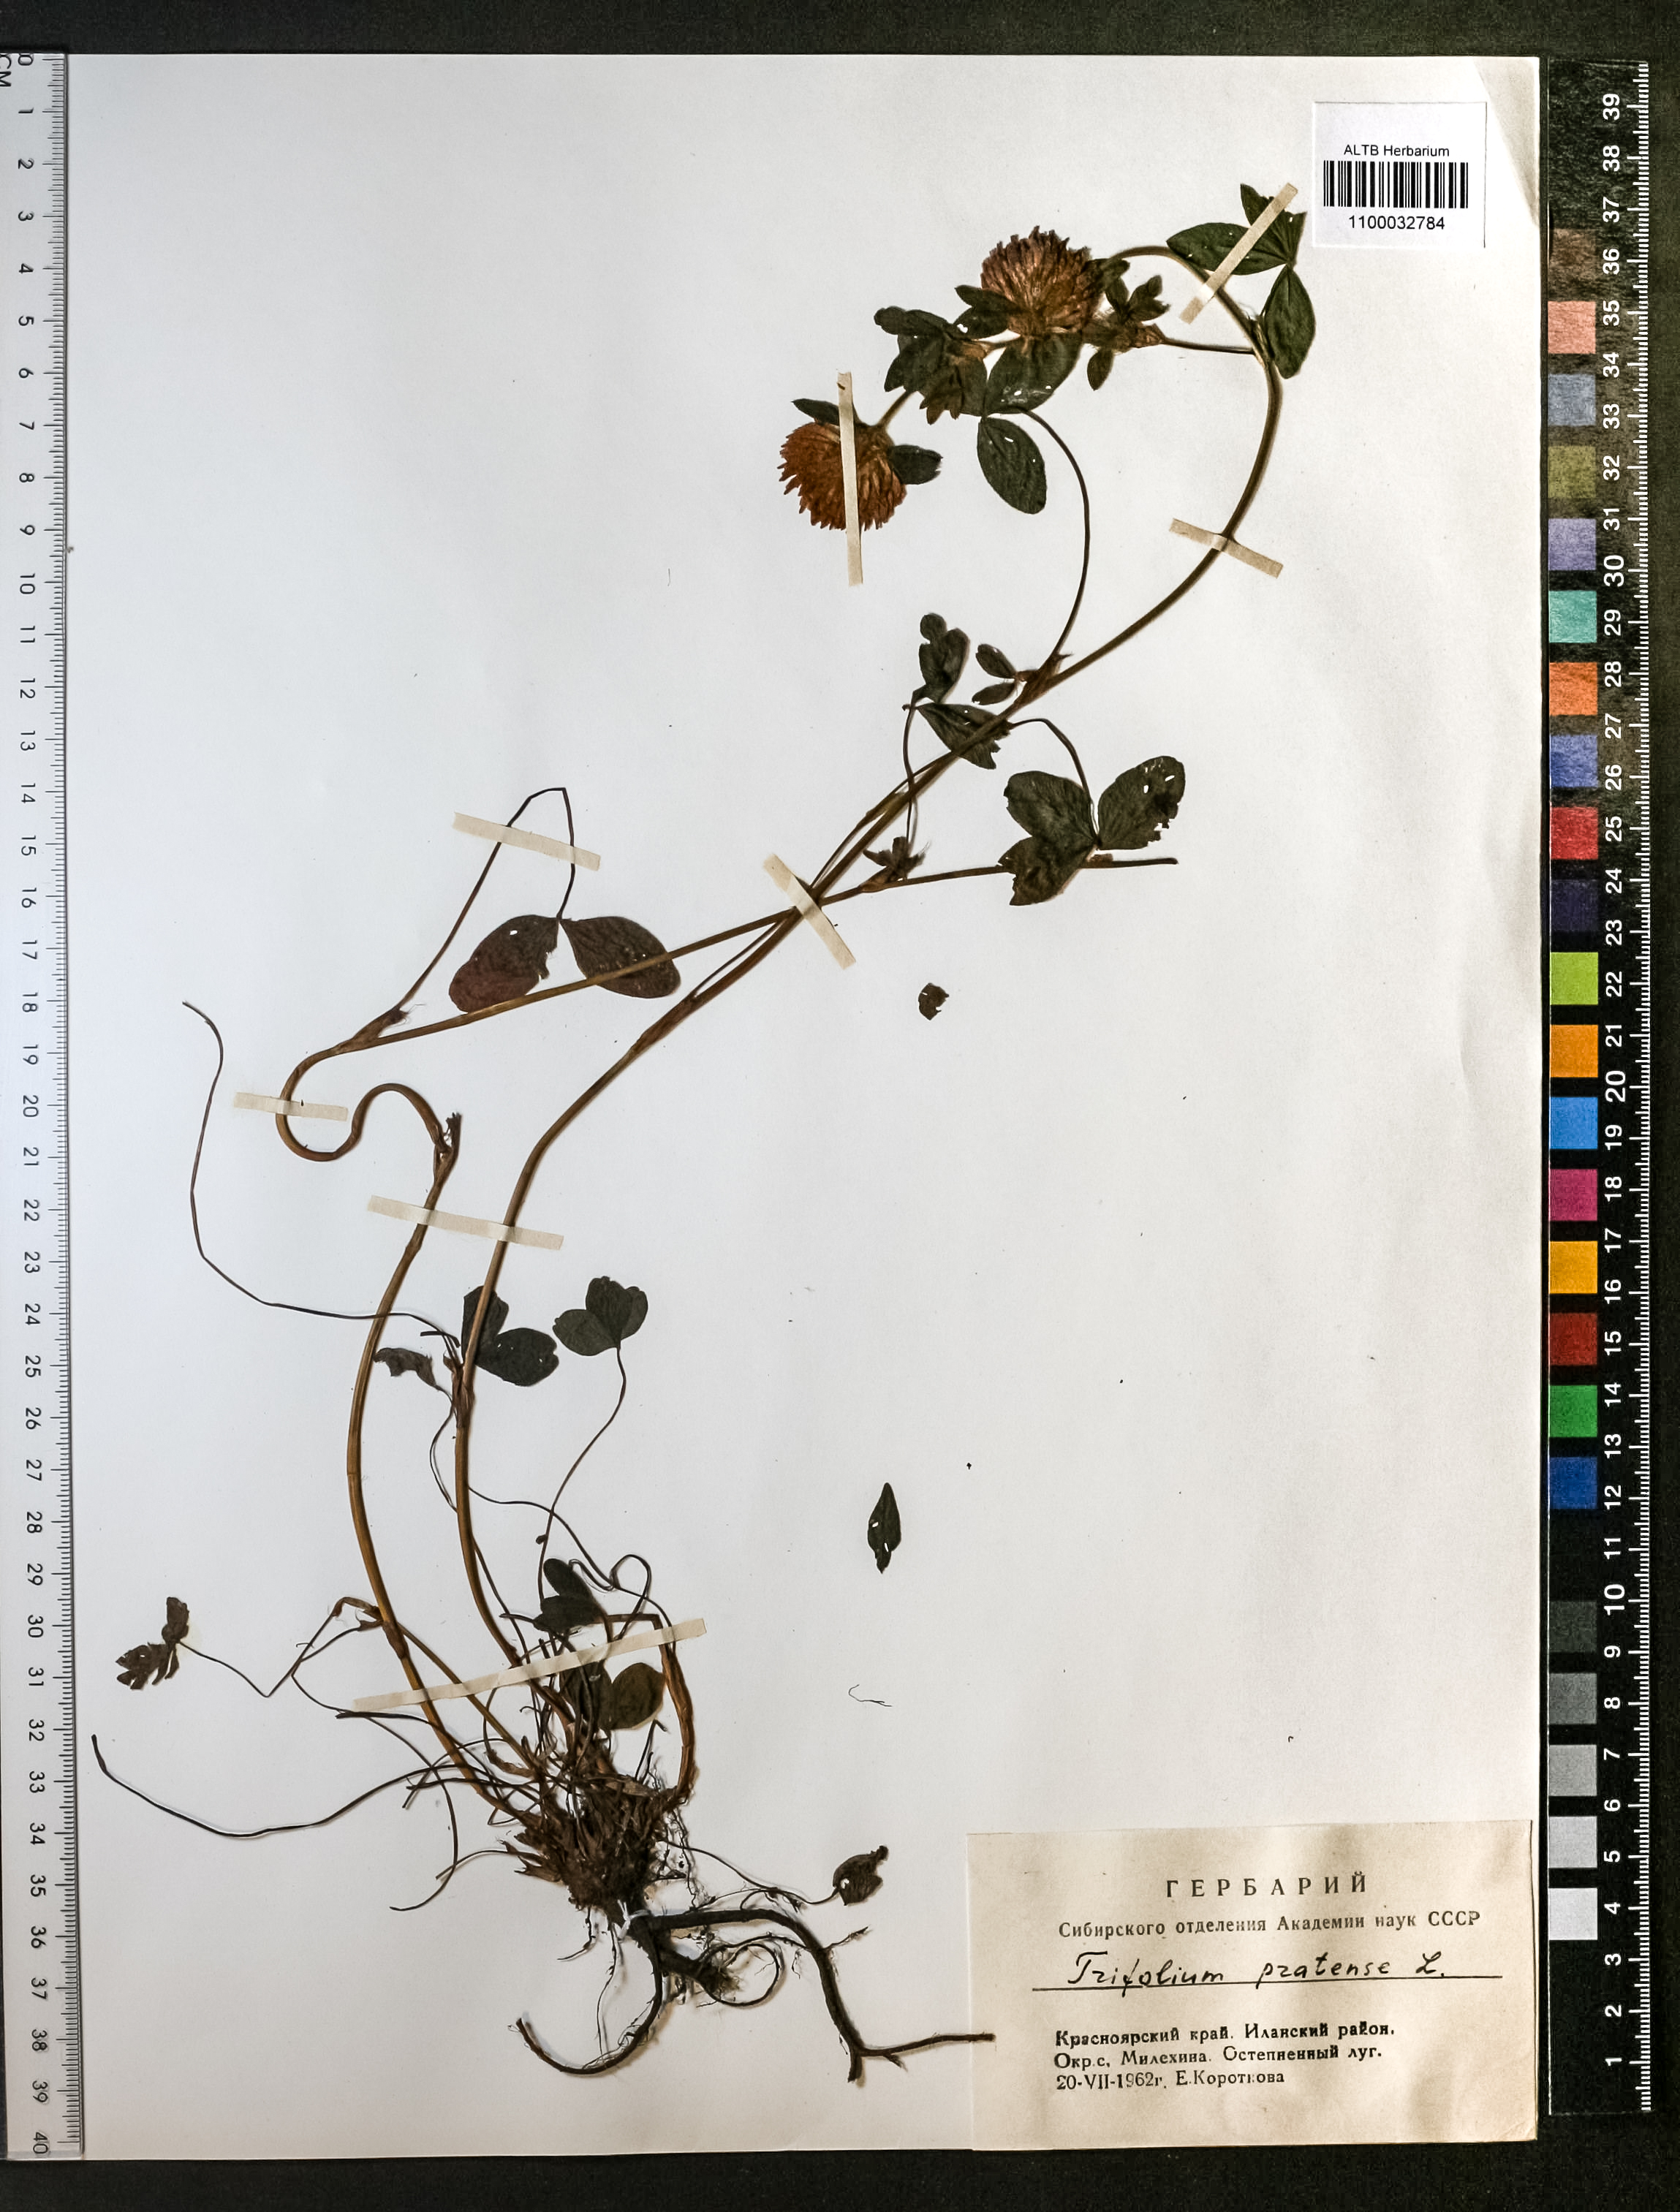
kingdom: Plantae
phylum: Tracheophyta
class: Magnoliopsida
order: Fabales
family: Fabaceae
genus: Trifolium
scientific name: Trifolium pratense
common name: Red clover
